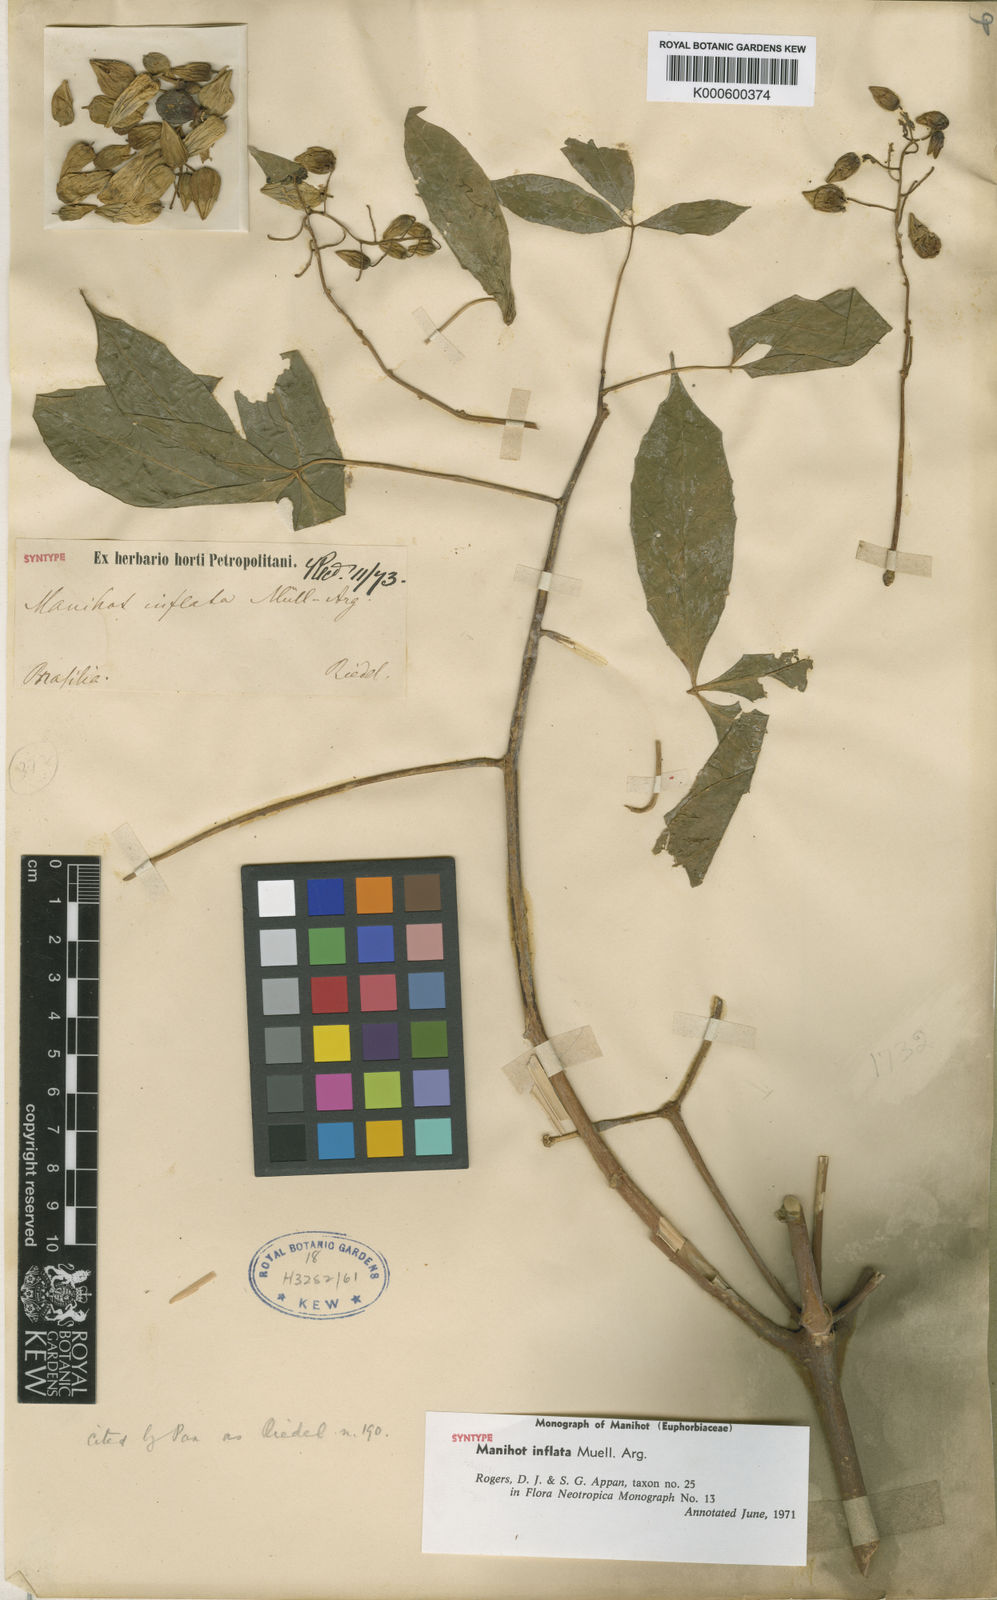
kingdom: Plantae
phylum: Tracheophyta
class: Magnoliopsida
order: Malpighiales
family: Euphorbiaceae
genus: Manihot
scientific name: Manihot
